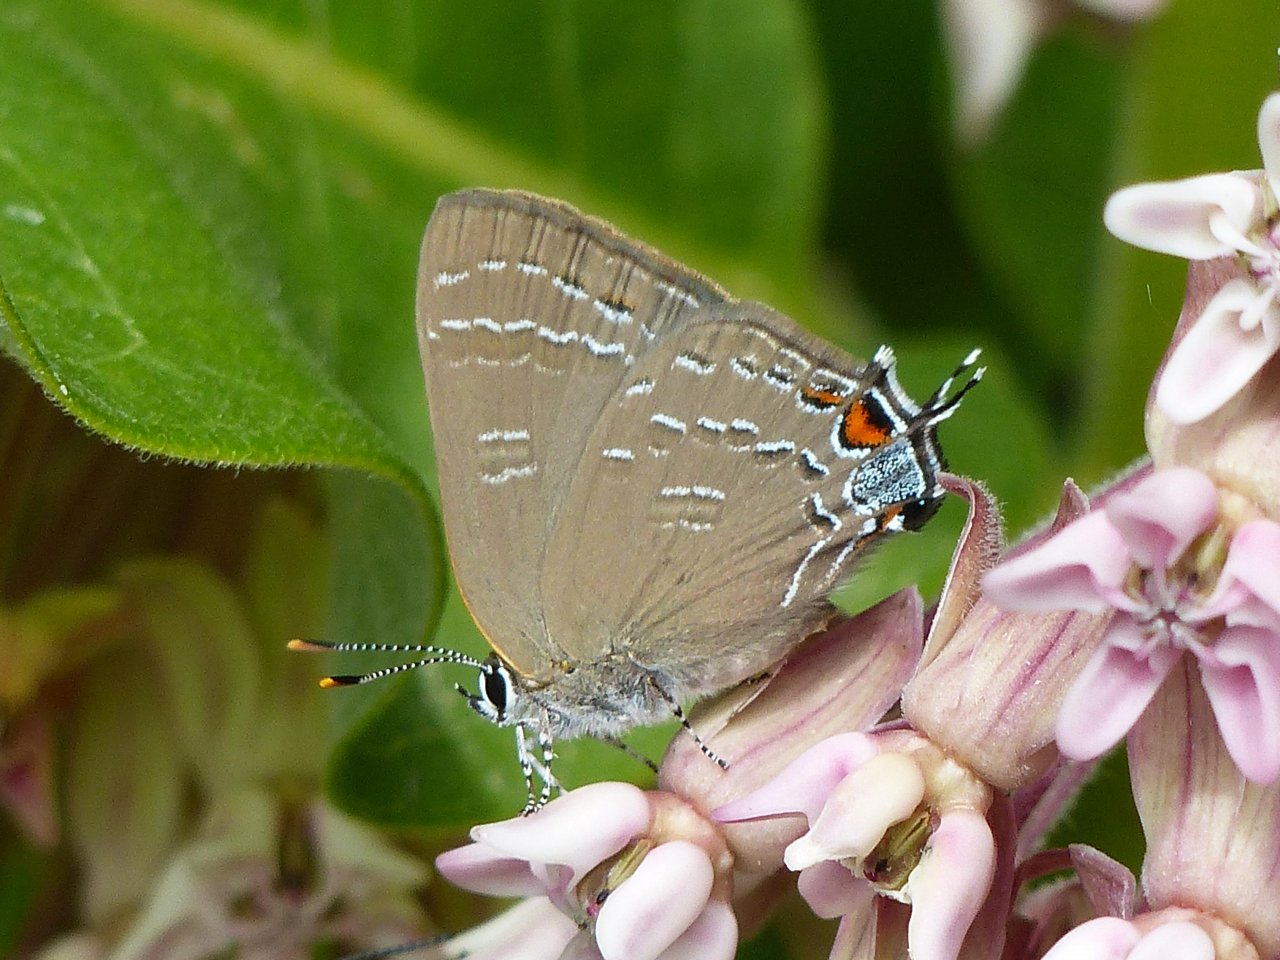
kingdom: Animalia
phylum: Arthropoda
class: Insecta
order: Lepidoptera
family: Lycaenidae
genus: Satyrium
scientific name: Satyrium calanus
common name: Banded Hairstreak
